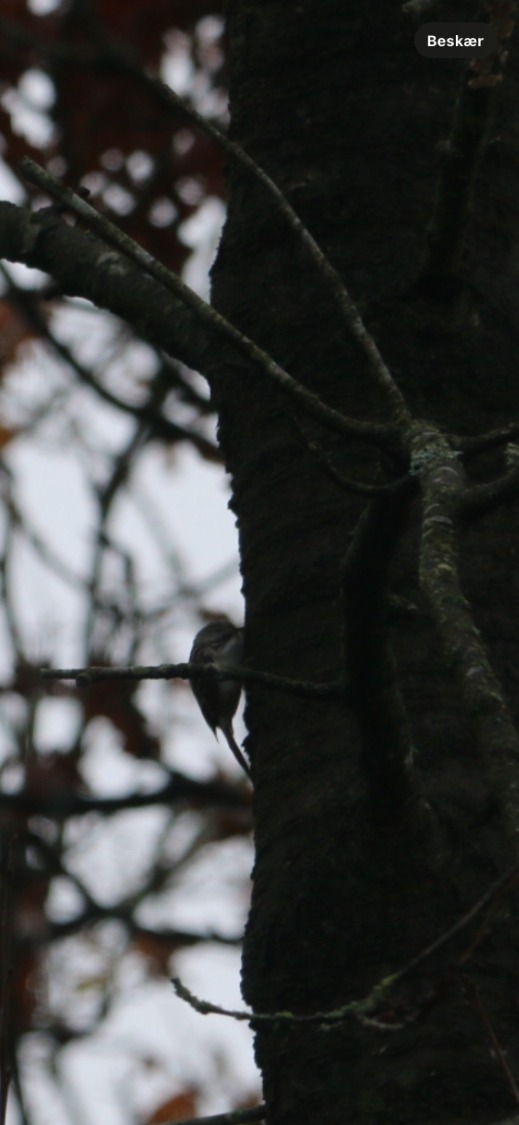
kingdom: Animalia
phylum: Chordata
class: Aves
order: Passeriformes
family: Certhiidae
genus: Certhia
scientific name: Certhia familiaris
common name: Træløber
